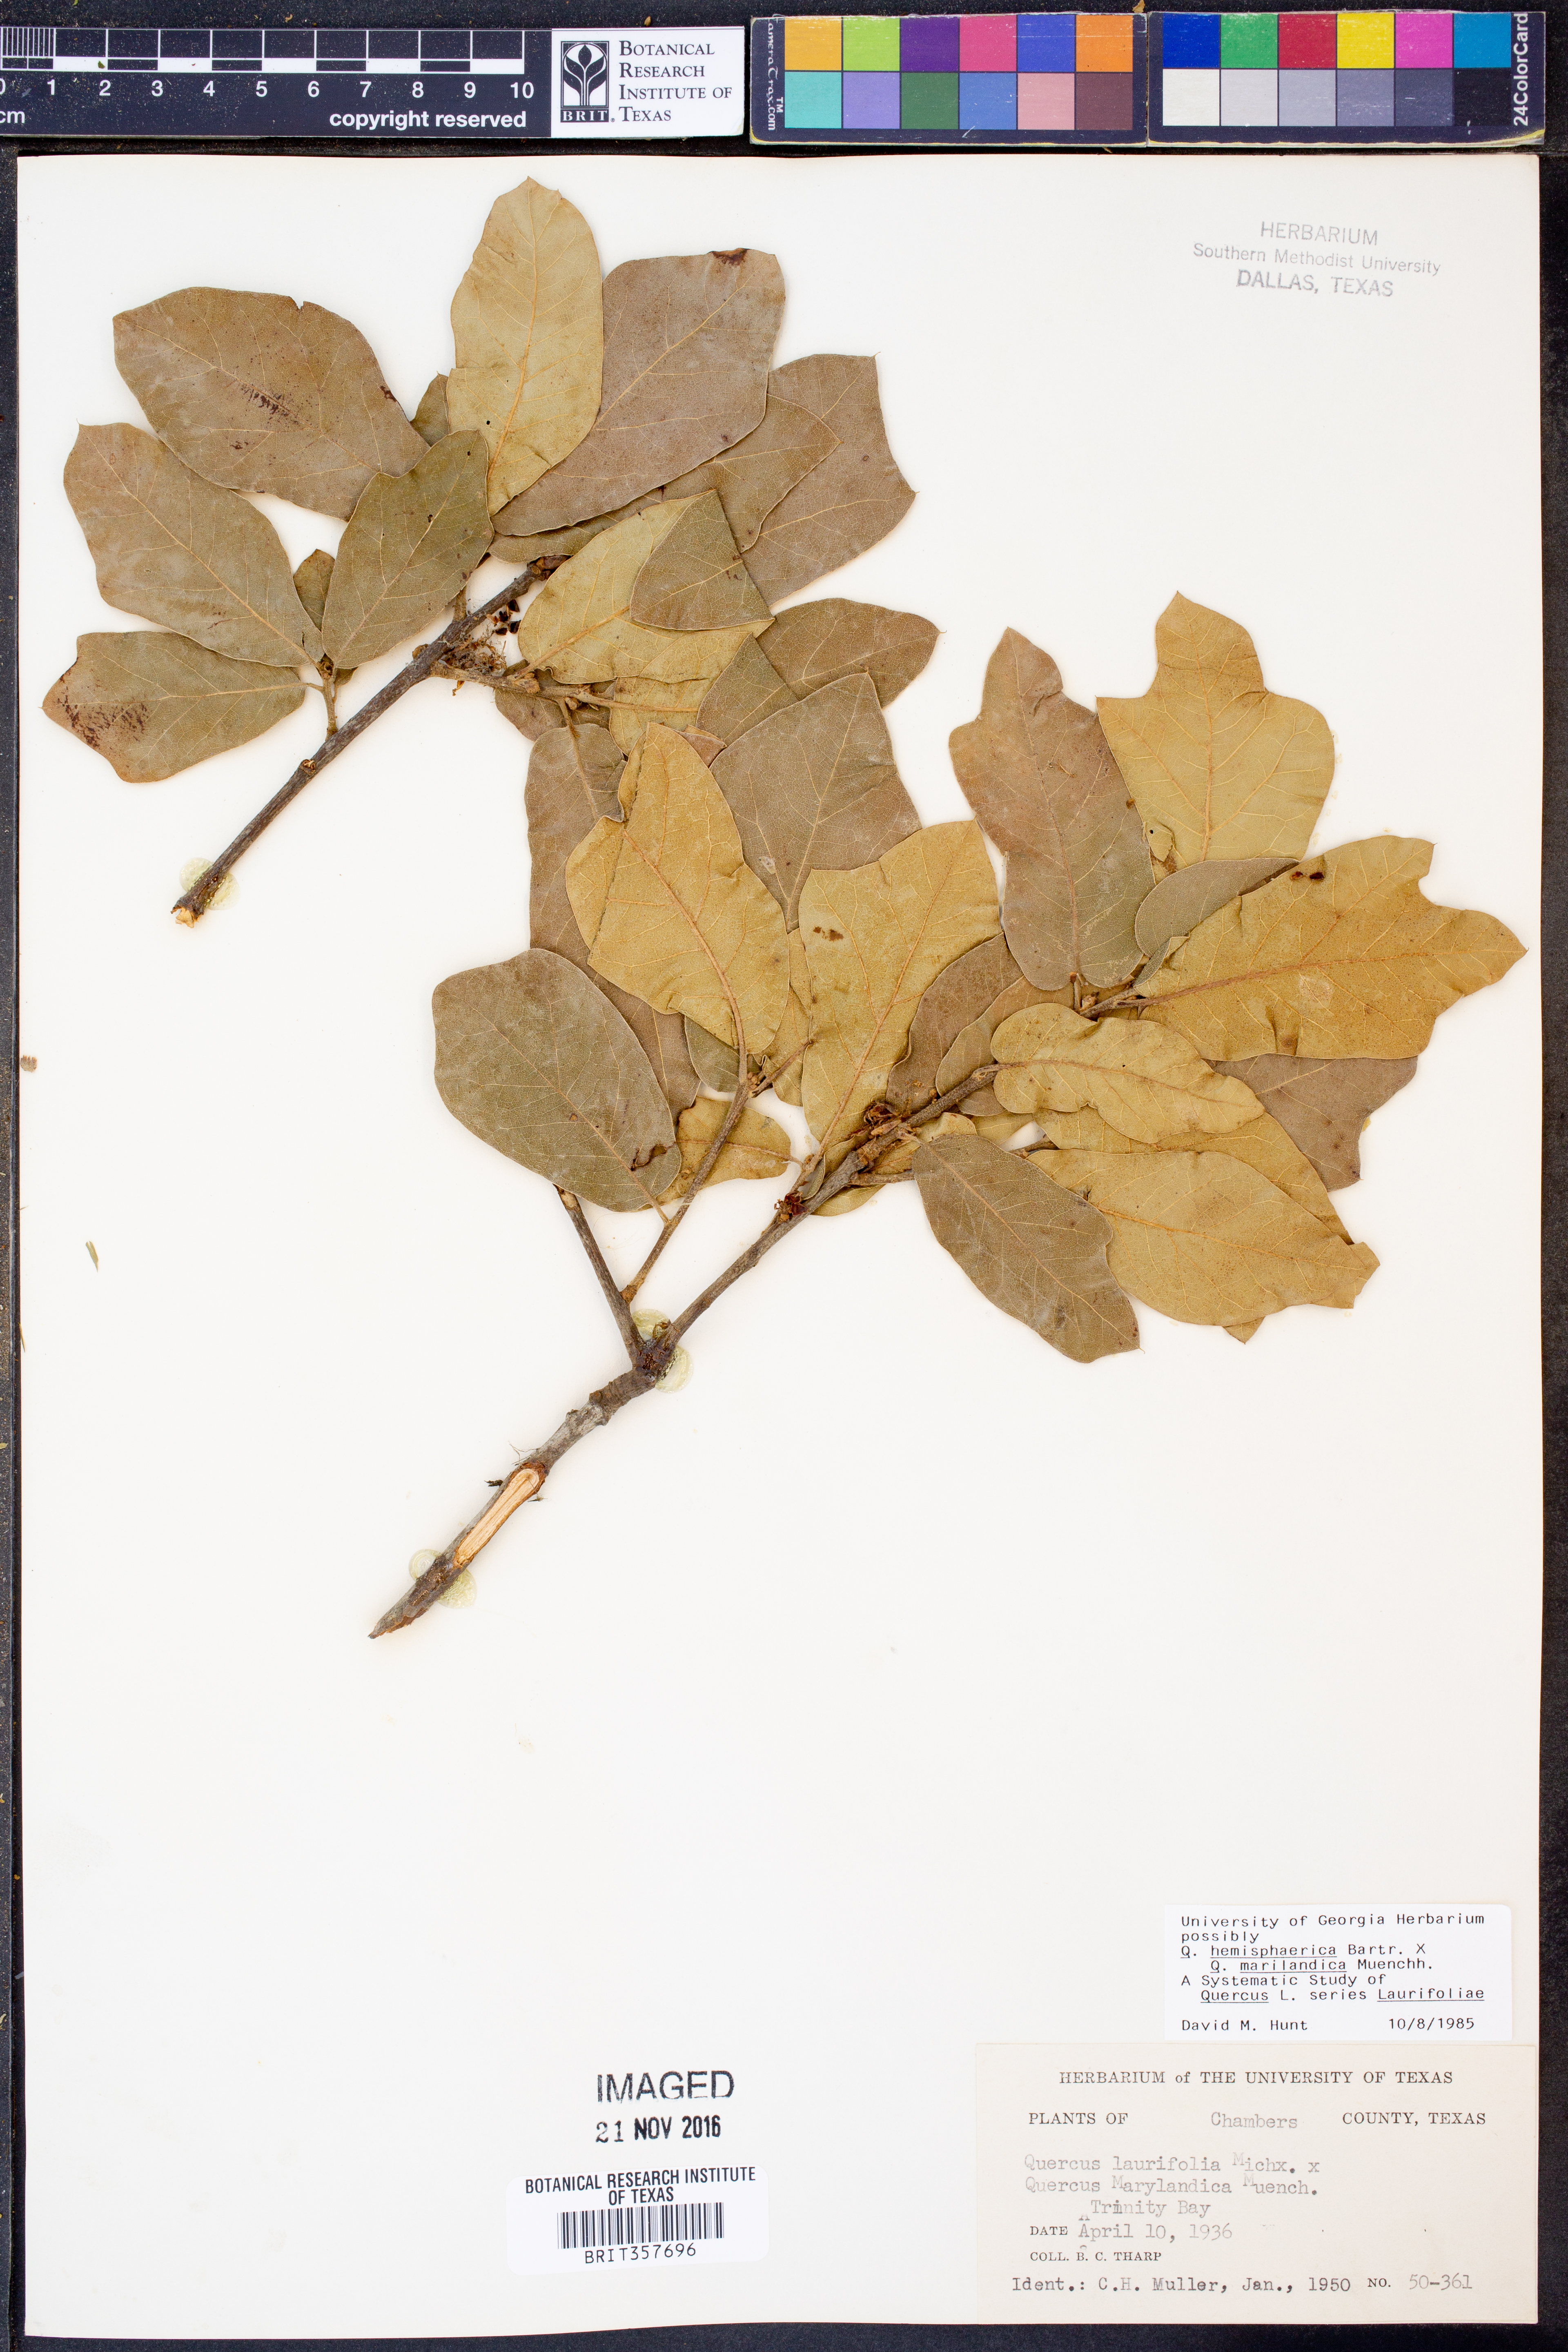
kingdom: Plantae
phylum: Tracheophyta
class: Magnoliopsida
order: Fagales
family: Fagaceae
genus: Quercus
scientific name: Quercus hemisphaerica
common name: Darlington oak
